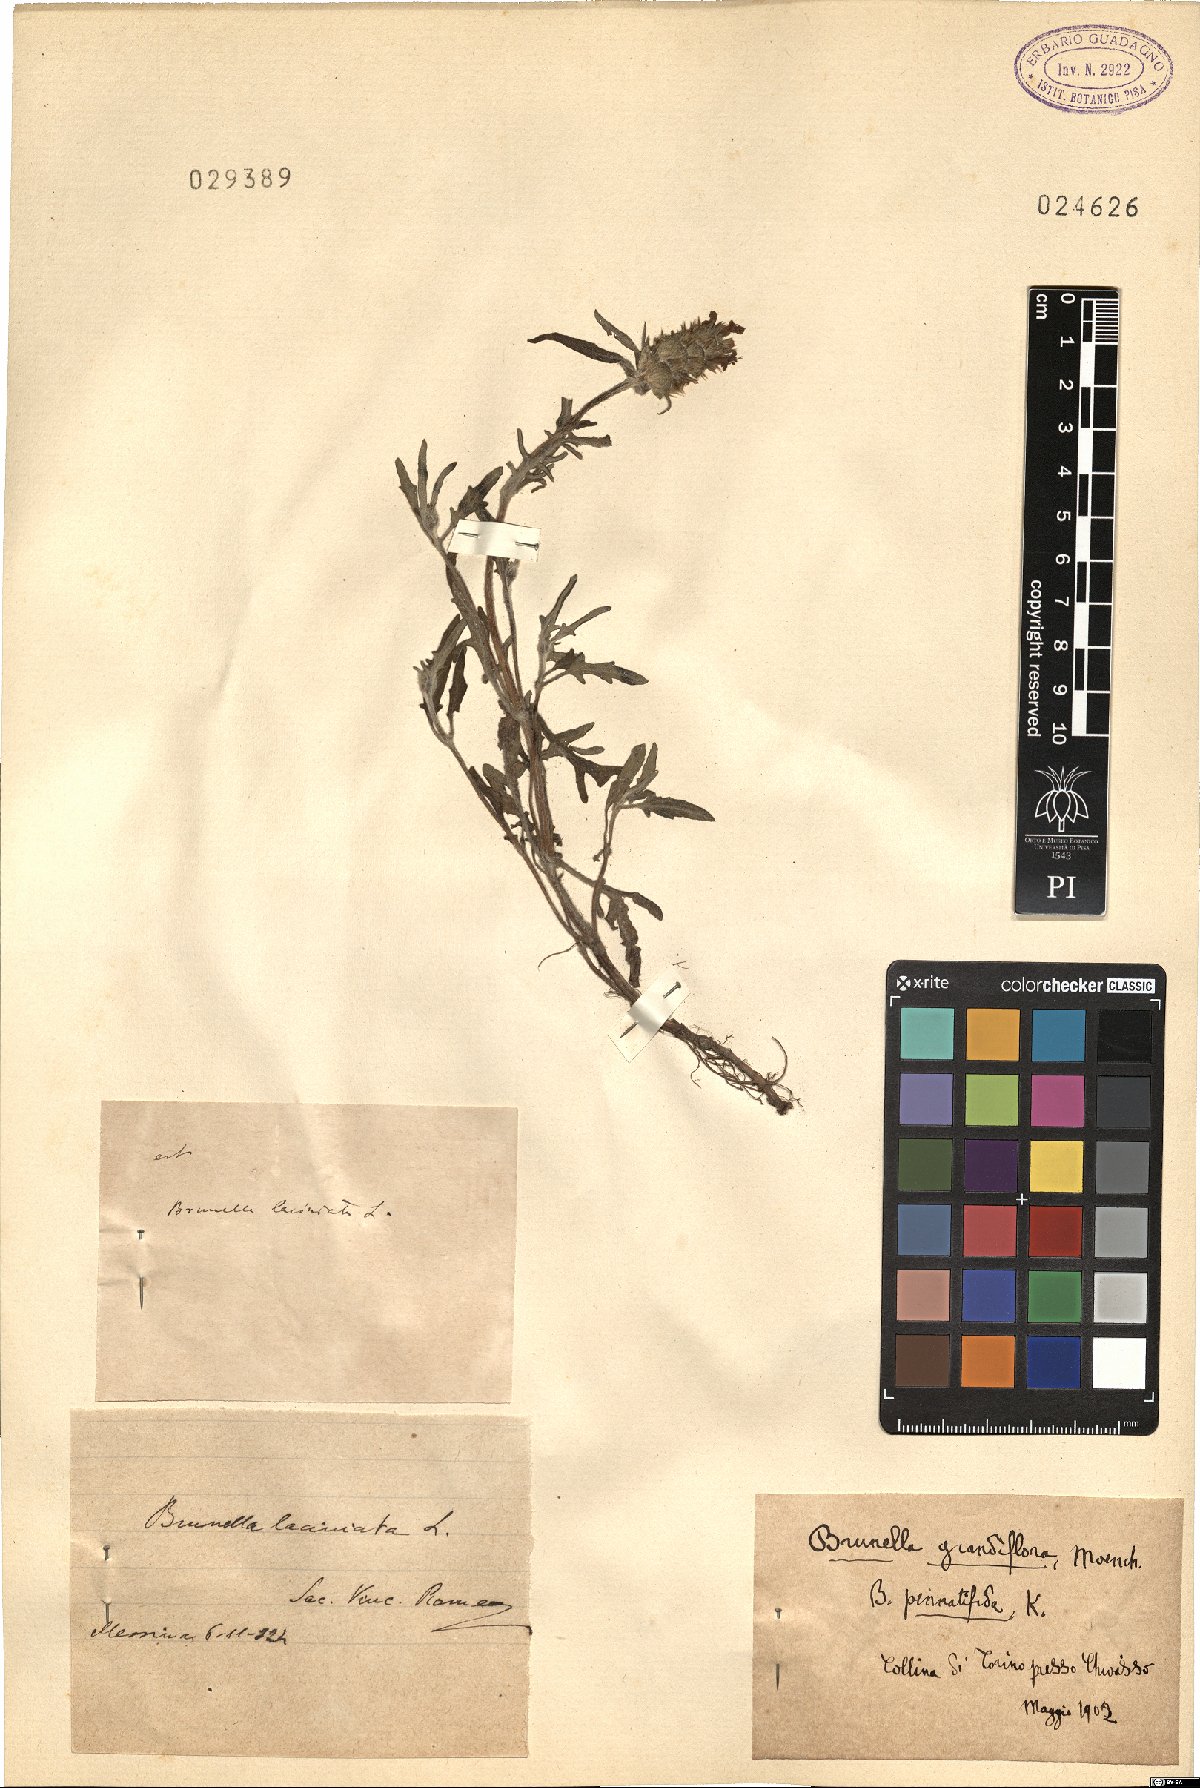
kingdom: Plantae
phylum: Tracheophyta
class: Magnoliopsida
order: Lamiales
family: Lamiaceae
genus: Prunella
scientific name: Prunella laciniata
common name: Cut-leaved selfheal
